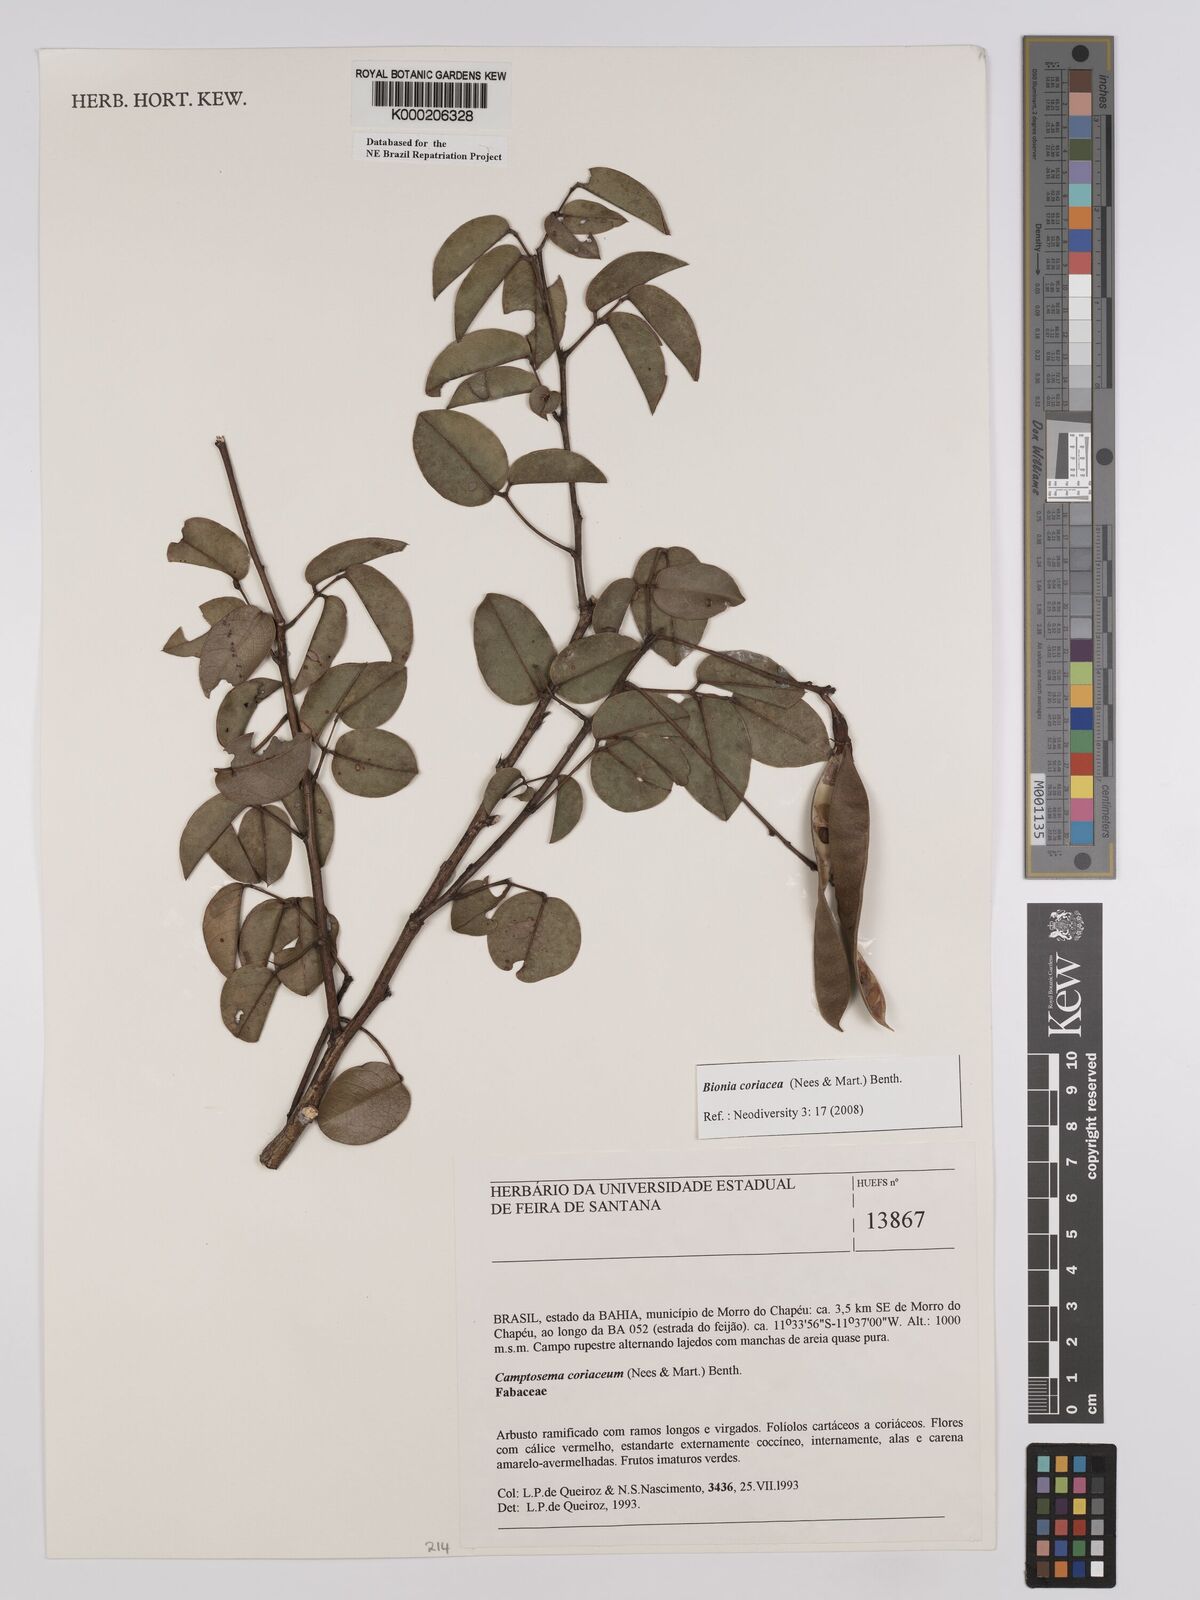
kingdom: Plantae
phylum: Tracheophyta
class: Magnoliopsida
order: Fabales
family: Fabaceae
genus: Camptosema
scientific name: Camptosema coriaceum
